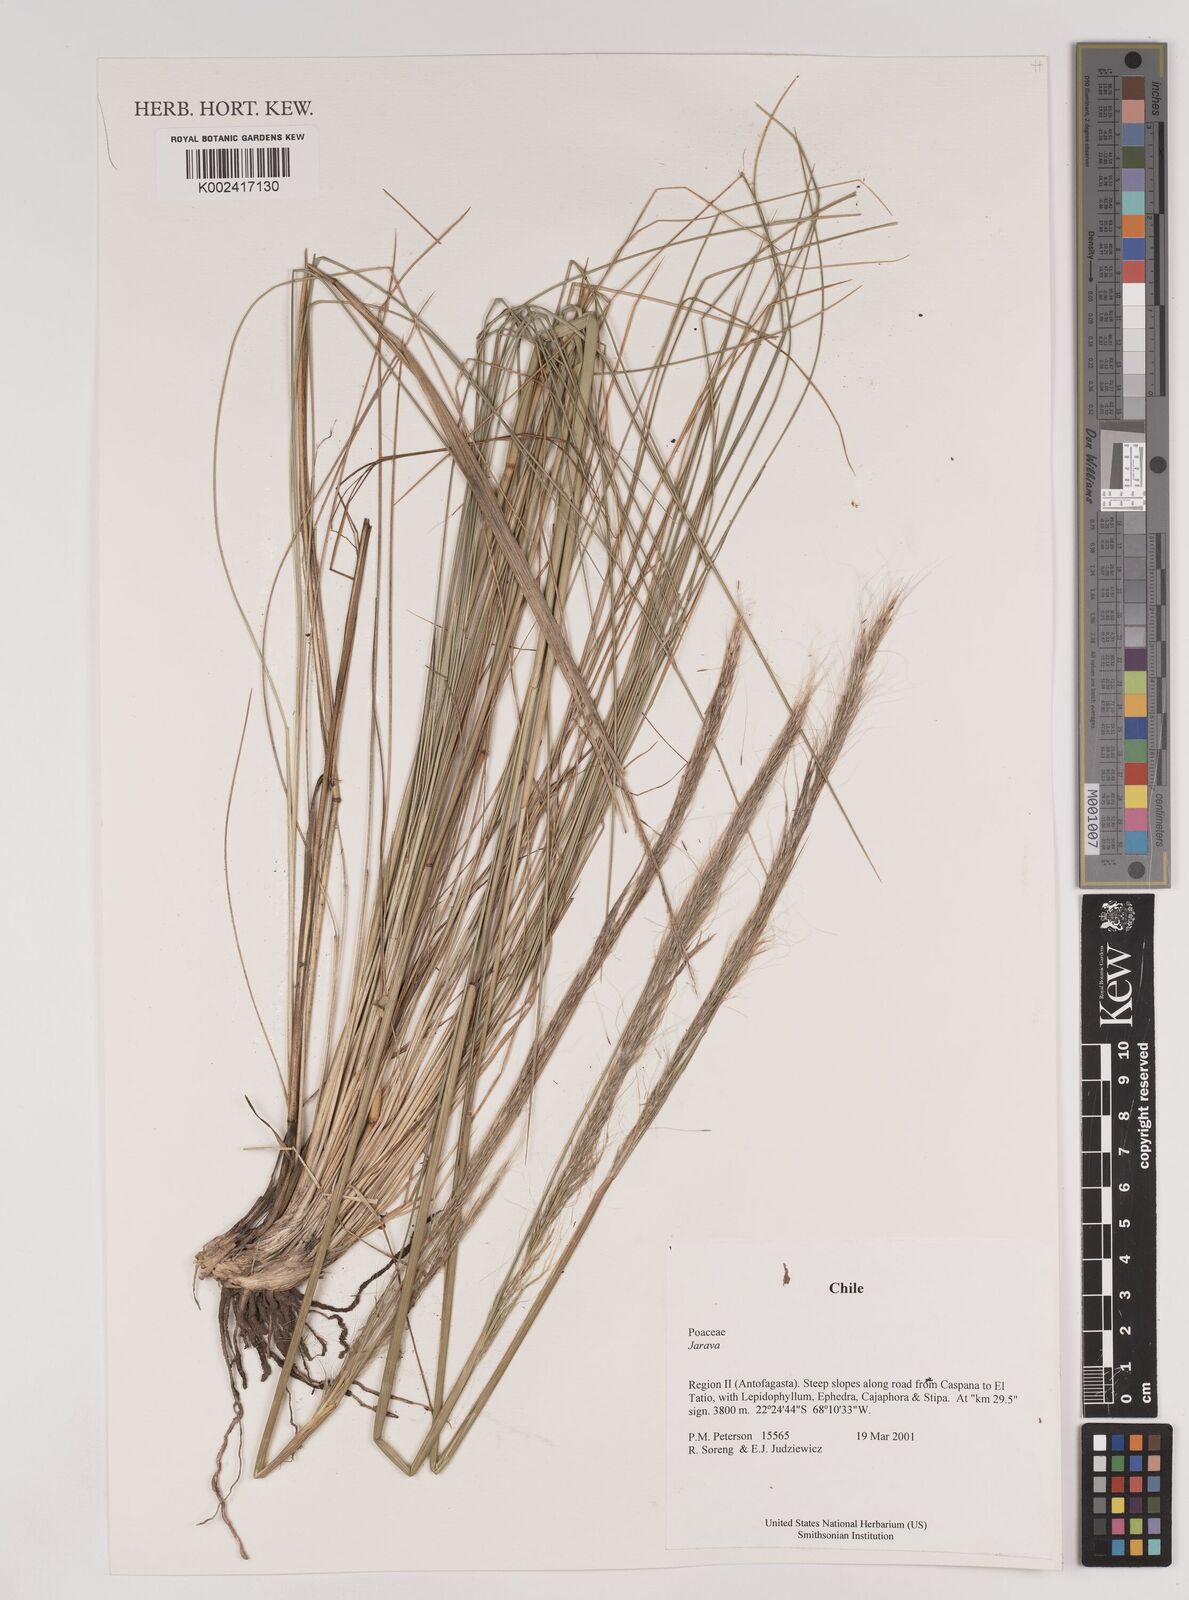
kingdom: Plantae
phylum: Tracheophyta
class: Liliopsida
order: Poales
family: Poaceae
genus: Stipa
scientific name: Stipa
